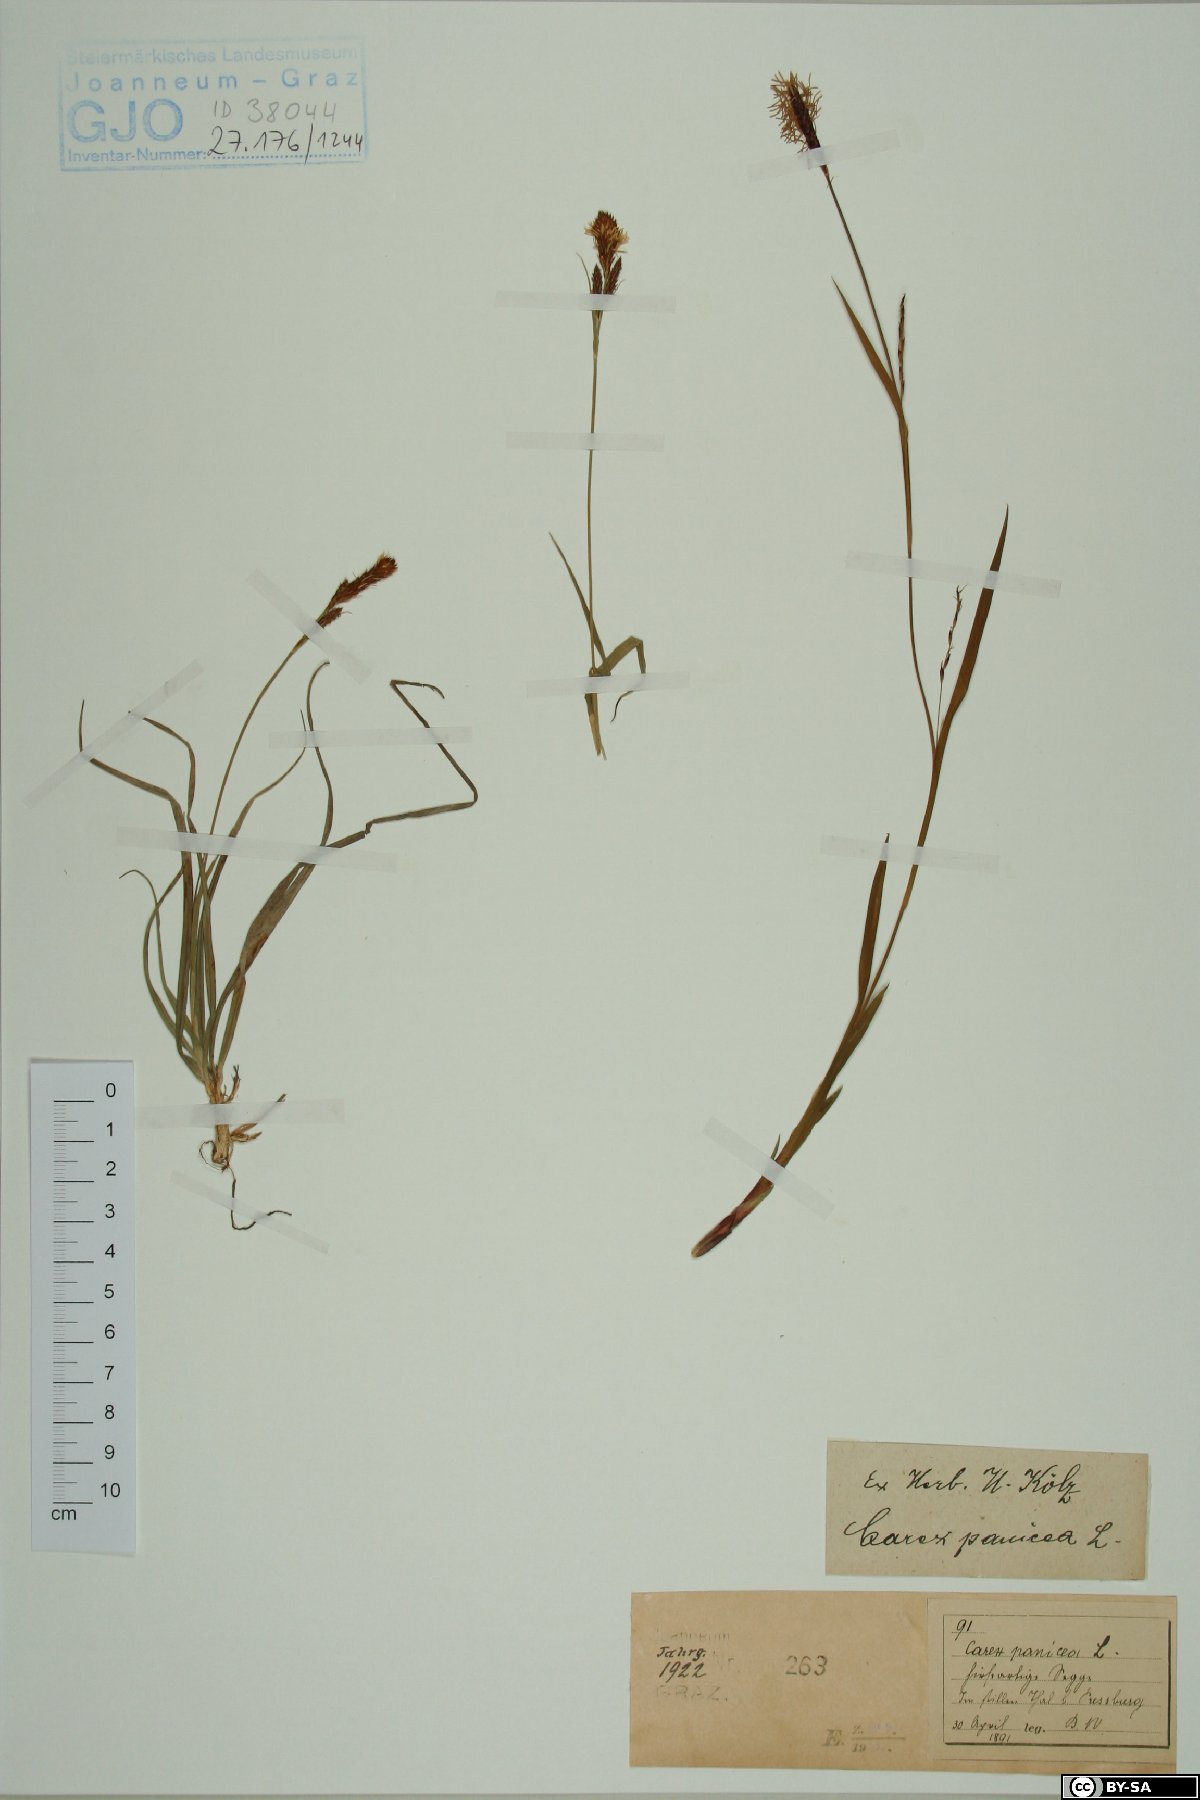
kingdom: Plantae
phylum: Tracheophyta
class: Liliopsida
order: Poales
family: Cyperaceae
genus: Carex
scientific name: Carex panicea
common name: Carnation sedge
